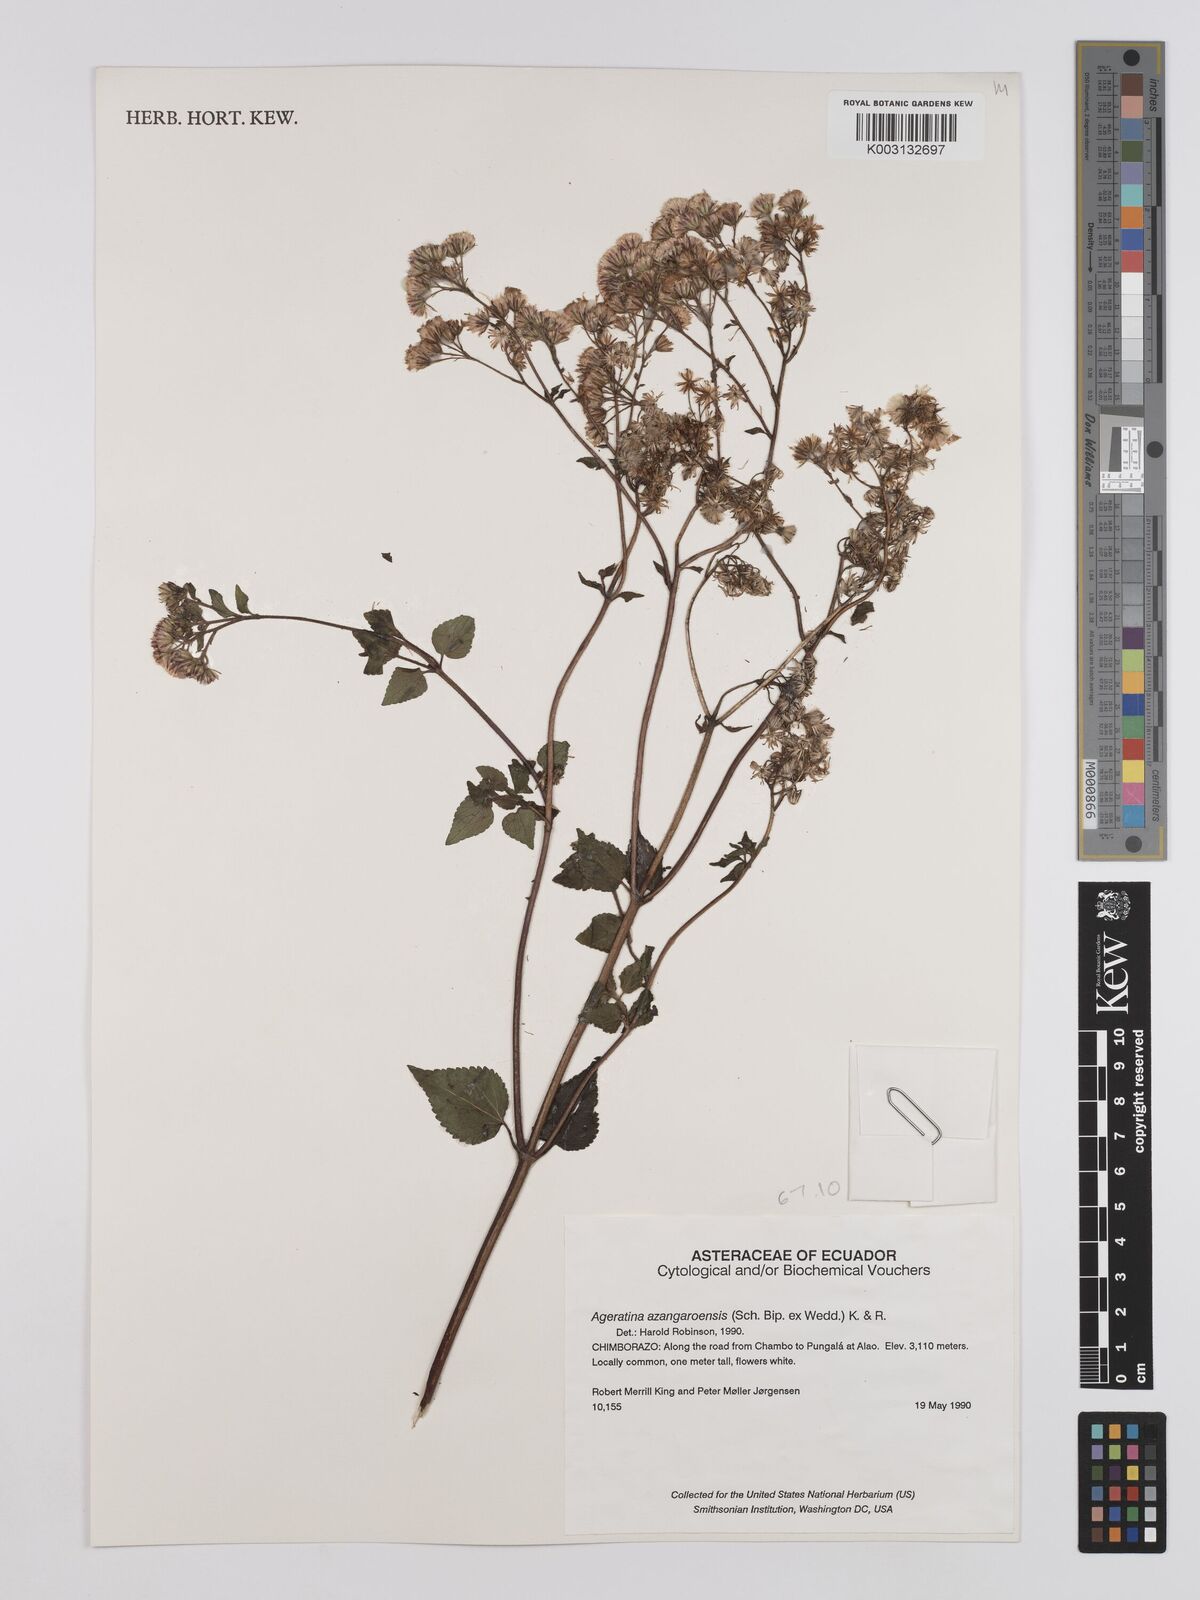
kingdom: Plantae
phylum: Tracheophyta
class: Magnoliopsida
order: Asterales
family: Asteraceae
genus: Ageratina
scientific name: Ageratina glechonophylla
